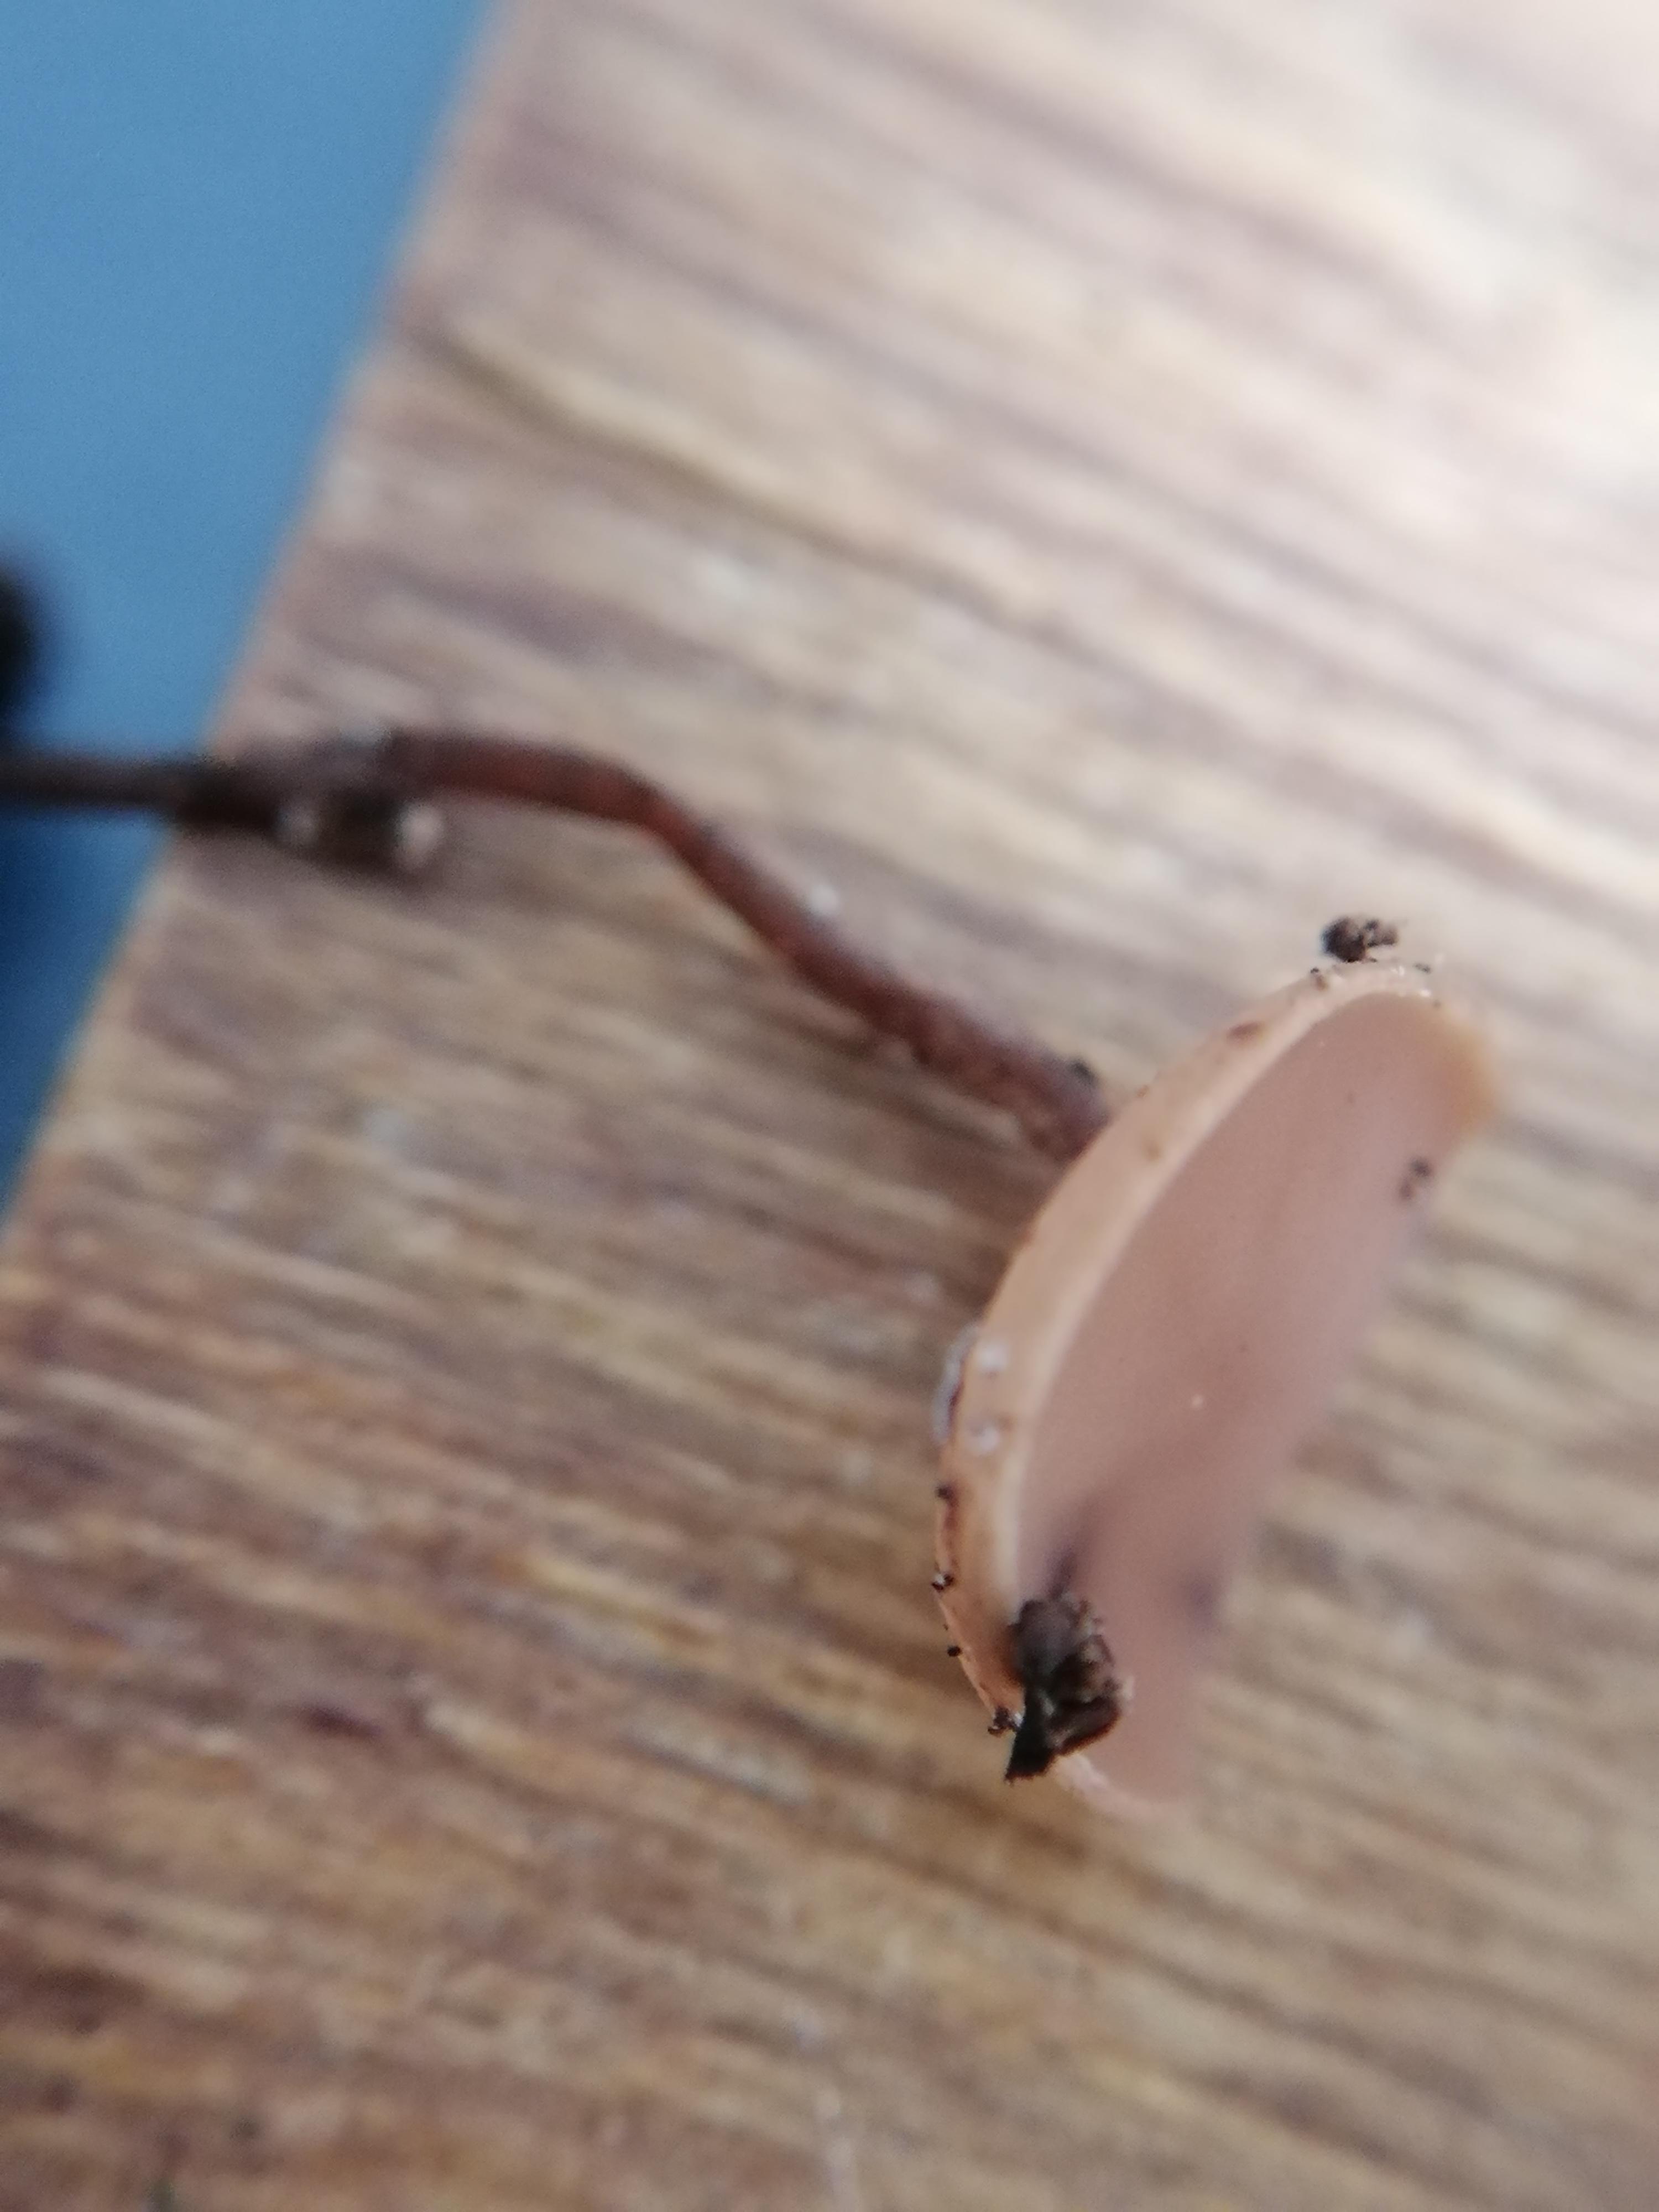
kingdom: Fungi
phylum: Ascomycota
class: Leotiomycetes
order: Helotiales
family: Sclerotiniaceae
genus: Ciboria
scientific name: Ciboria
